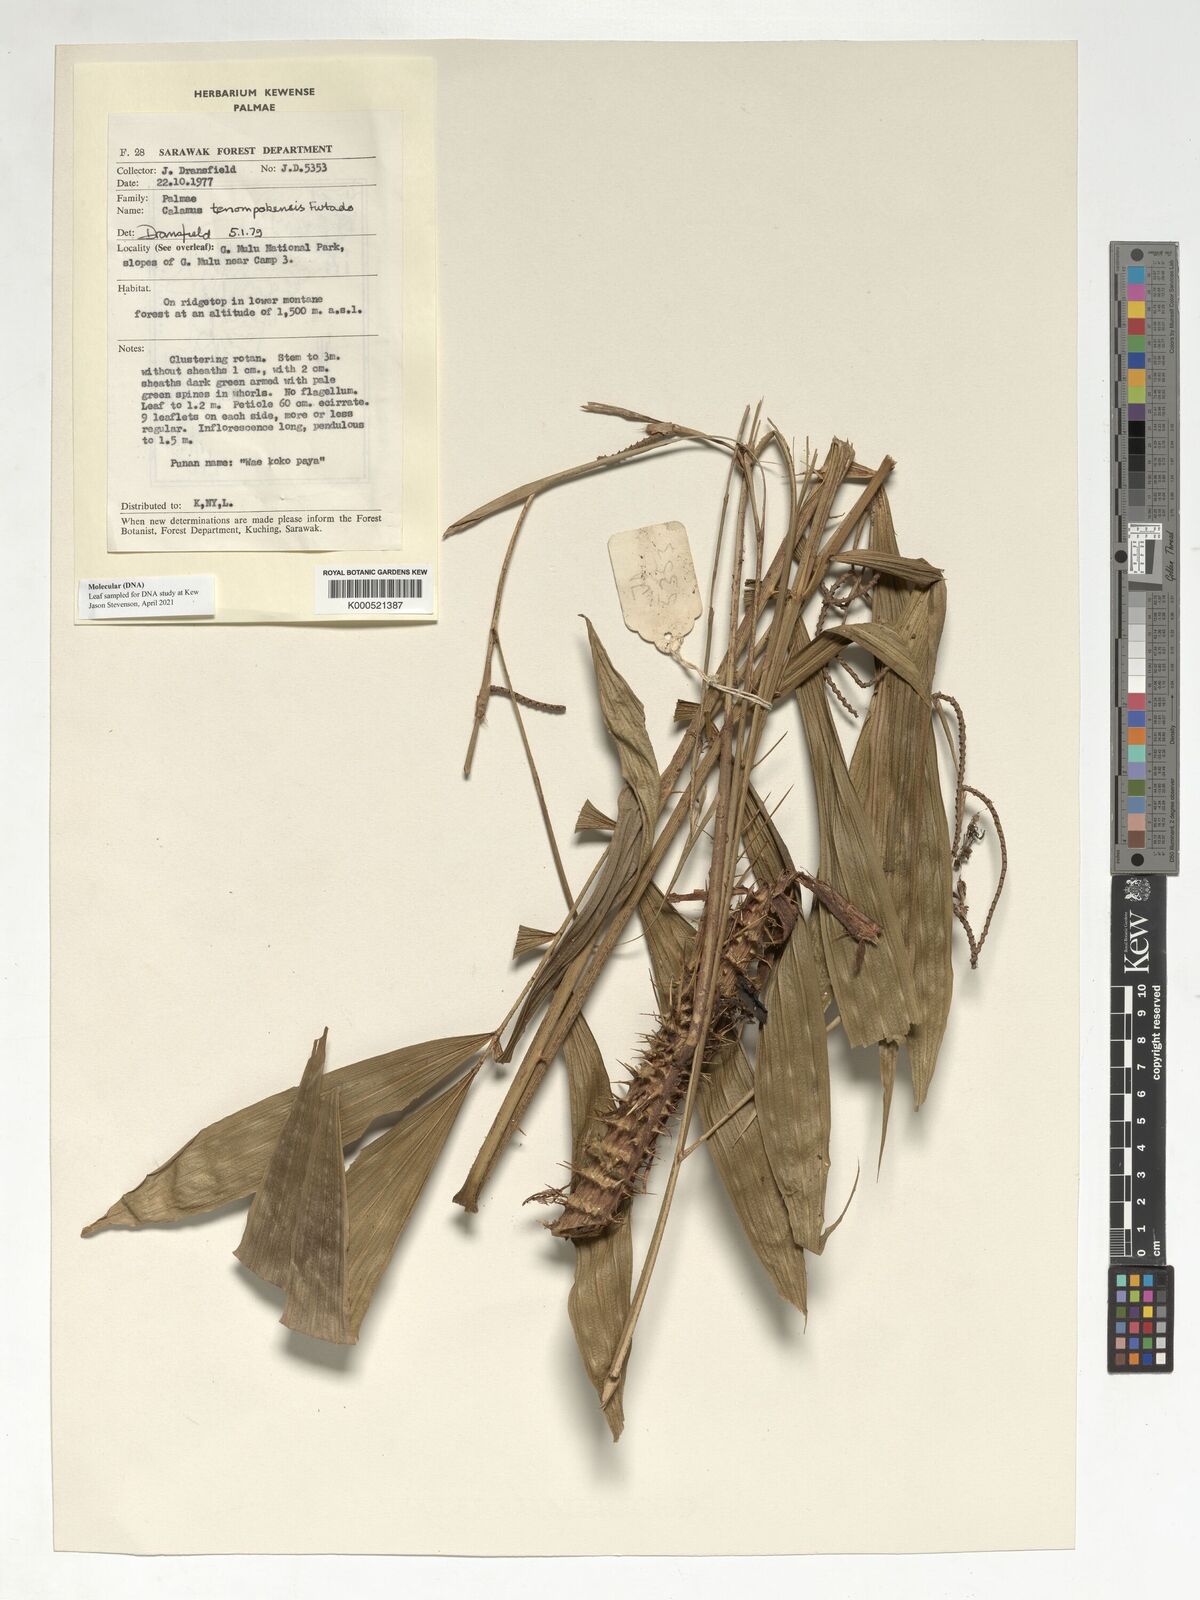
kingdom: Plantae
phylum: Tracheophyta
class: Liliopsida
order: Arecales
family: Arecaceae
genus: Calamus
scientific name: Calamus tenompokensis
